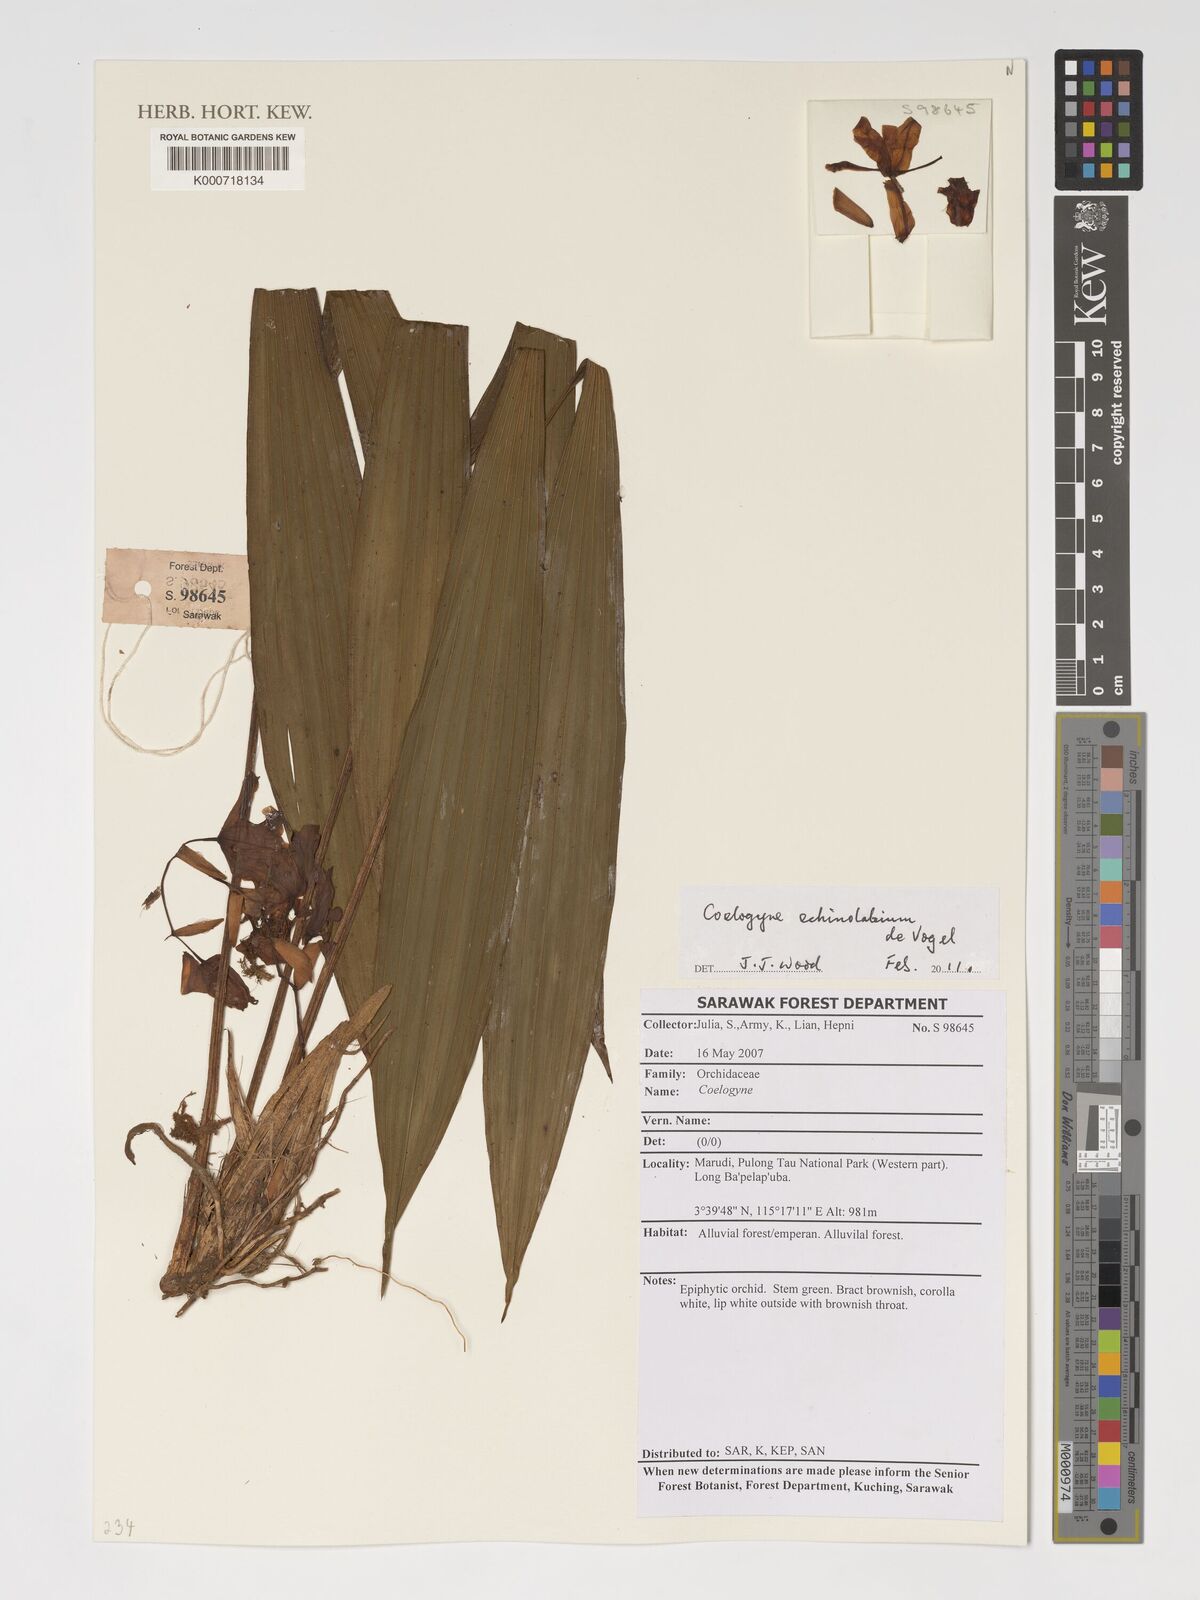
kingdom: Plantae
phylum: Tracheophyta
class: Liliopsida
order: Asparagales
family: Orchidaceae
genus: Coelogyne
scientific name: Coelogyne echinolabium
